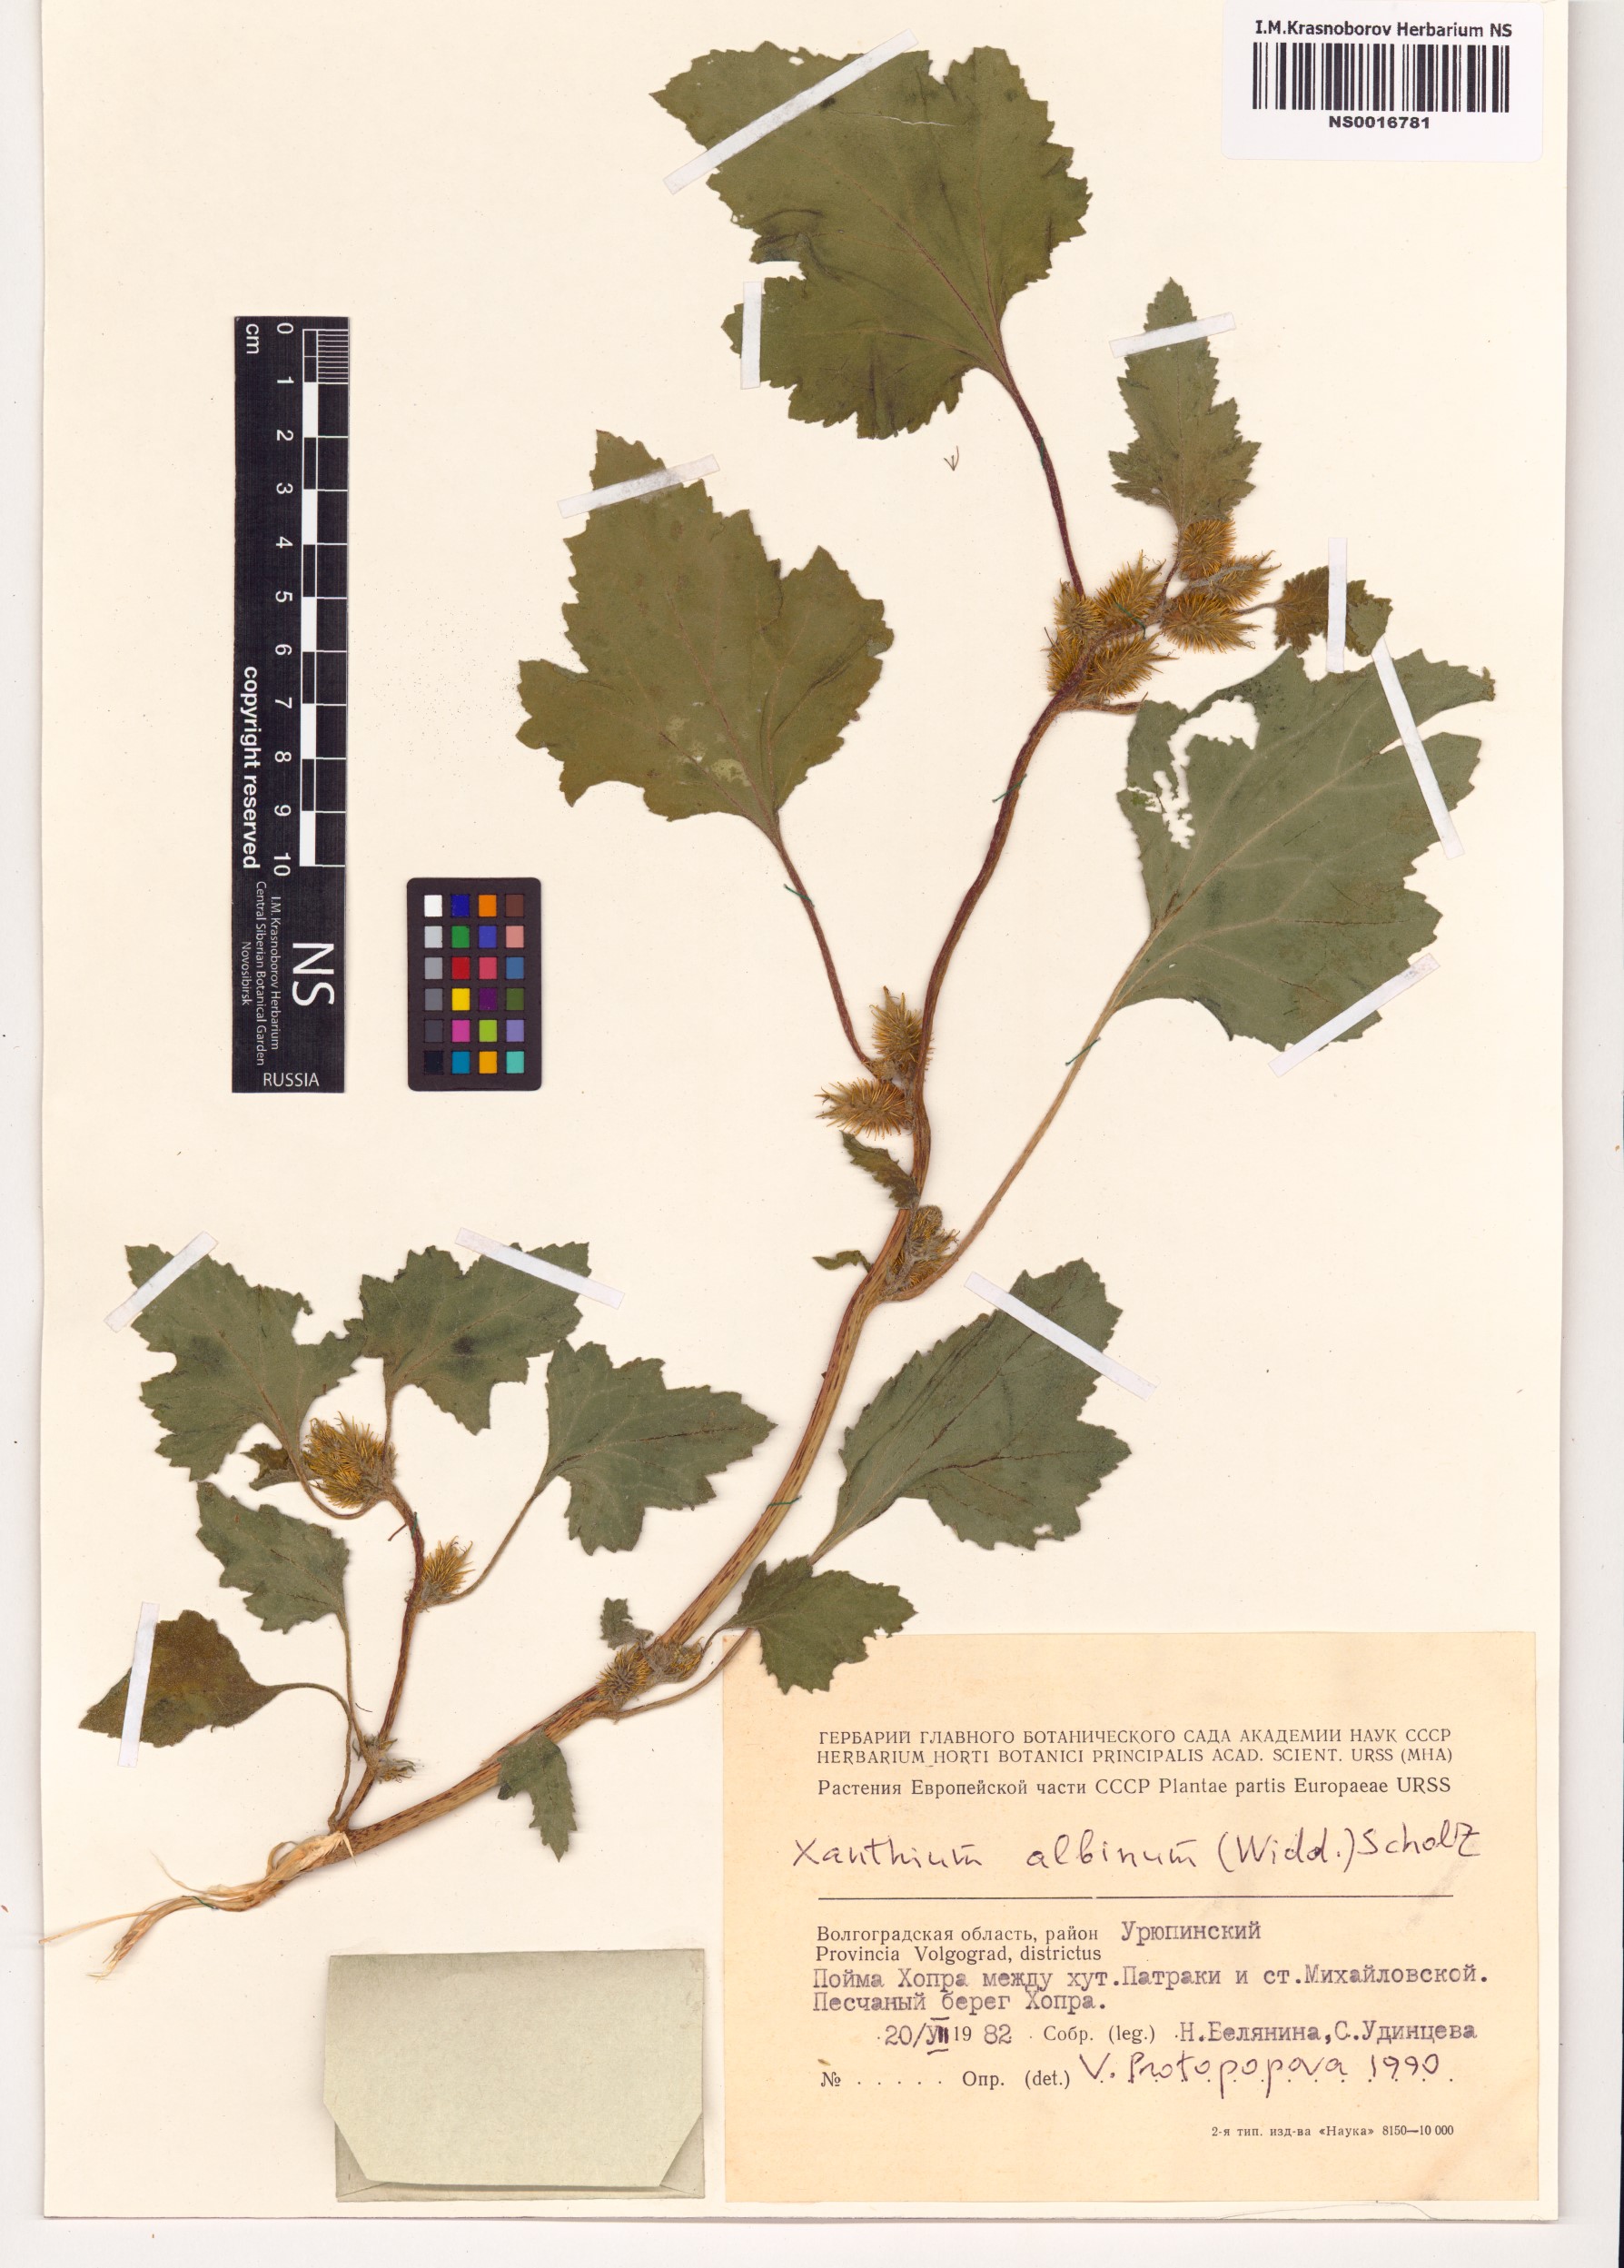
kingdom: Plantae
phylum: Tracheophyta
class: Magnoliopsida
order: Asterales
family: Asteraceae
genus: Xanthium
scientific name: Xanthium orientale
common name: Californian burr
